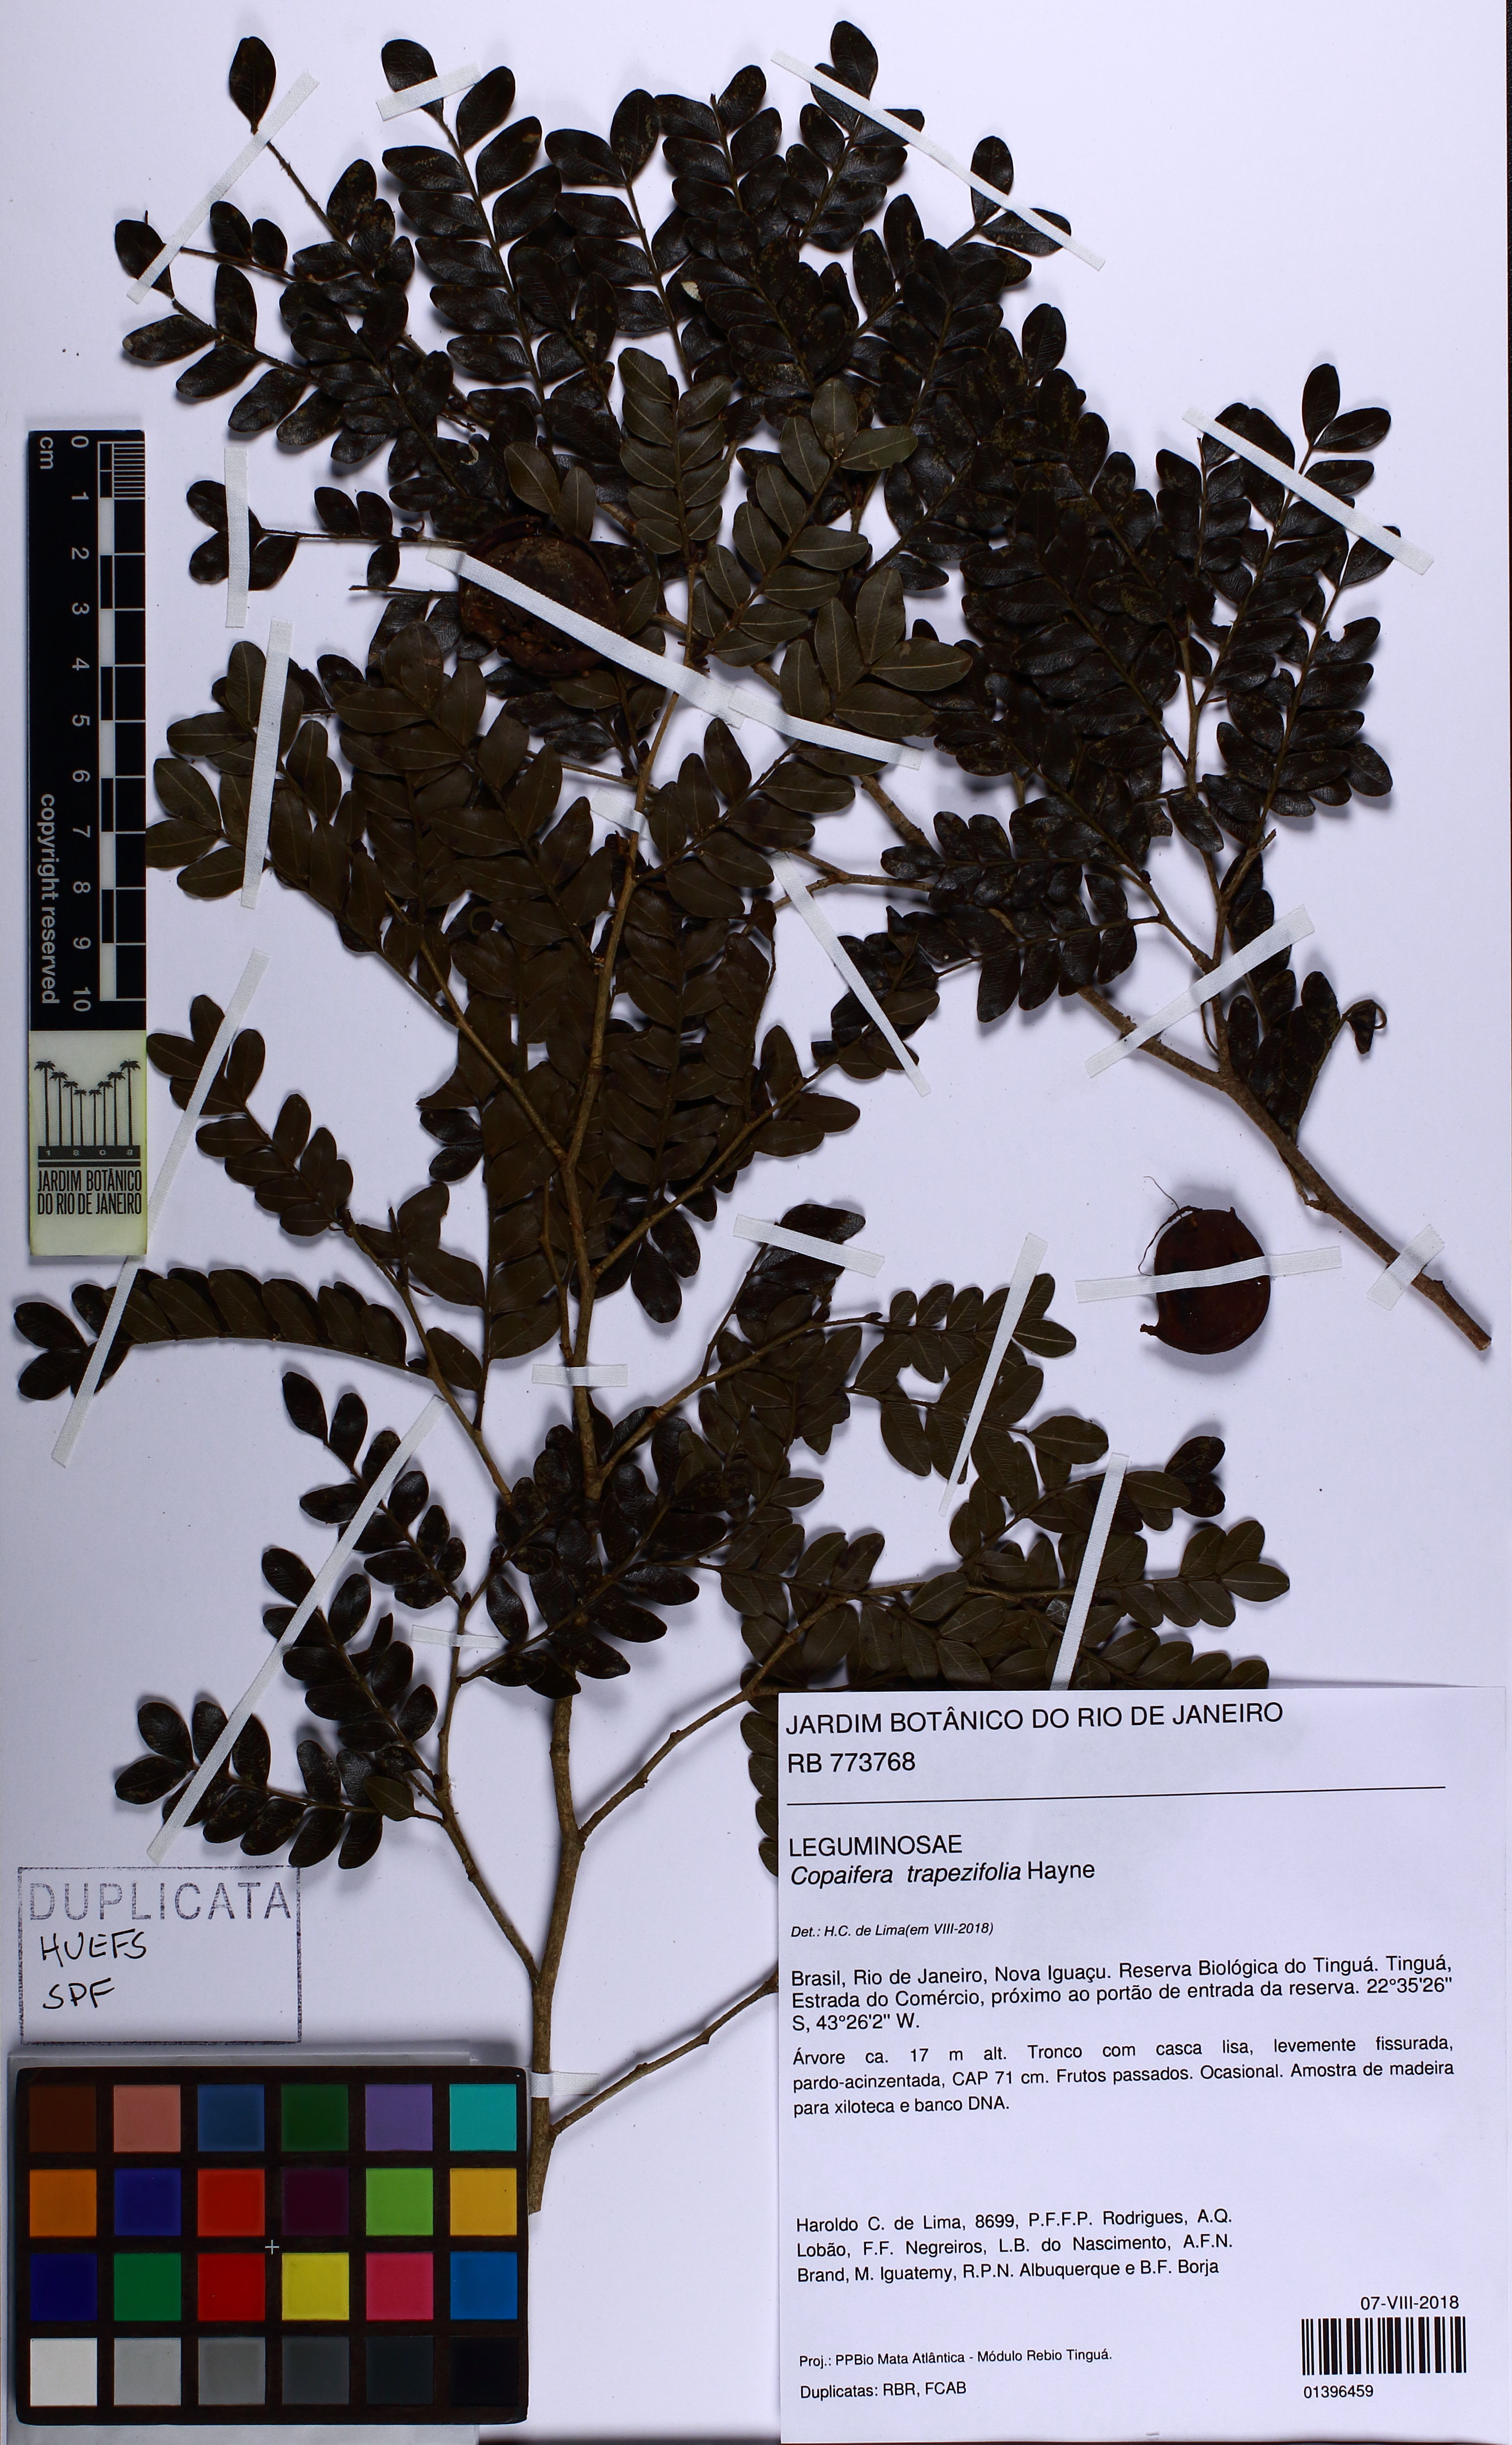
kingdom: Plantae
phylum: Tracheophyta
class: Magnoliopsida
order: Fabales
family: Fabaceae
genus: Copaifera
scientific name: Copaifera trapezifolia
